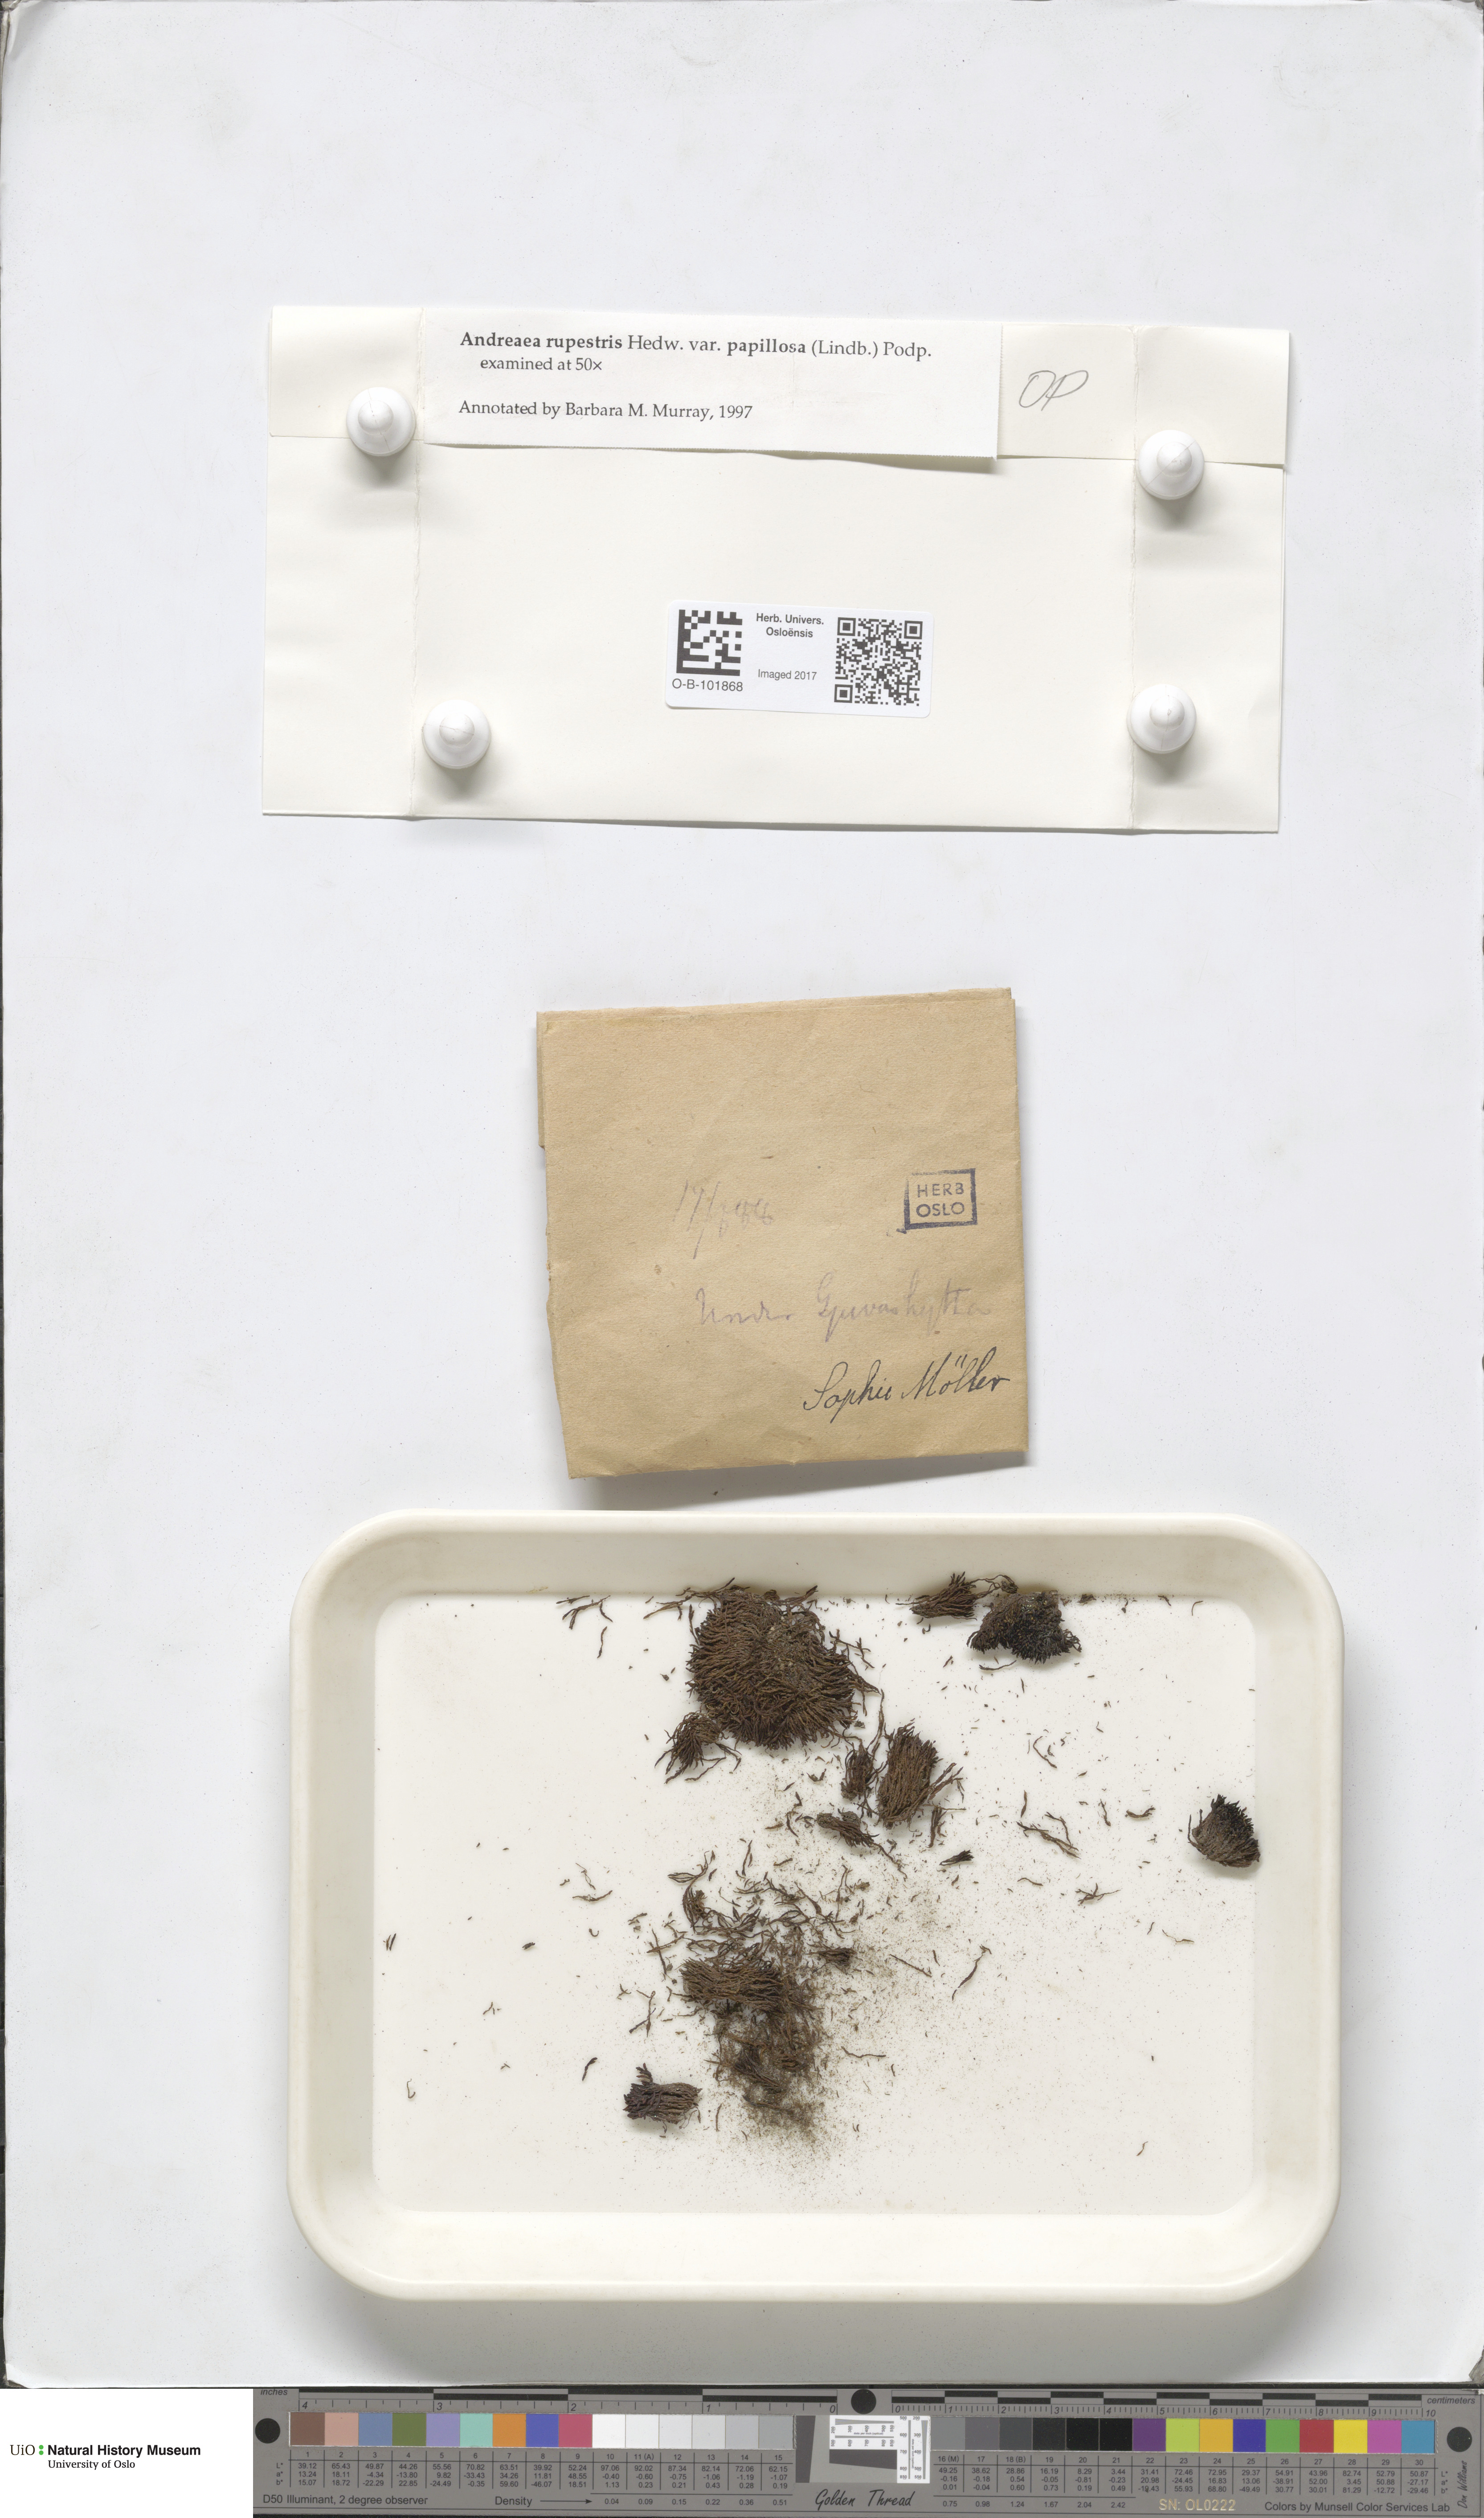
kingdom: Plantae
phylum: Bryophyta
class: Andreaeopsida
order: Andreaeales
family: Andreaeaceae
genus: Andreaea
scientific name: Andreaea rupestris
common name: Black rock moss
